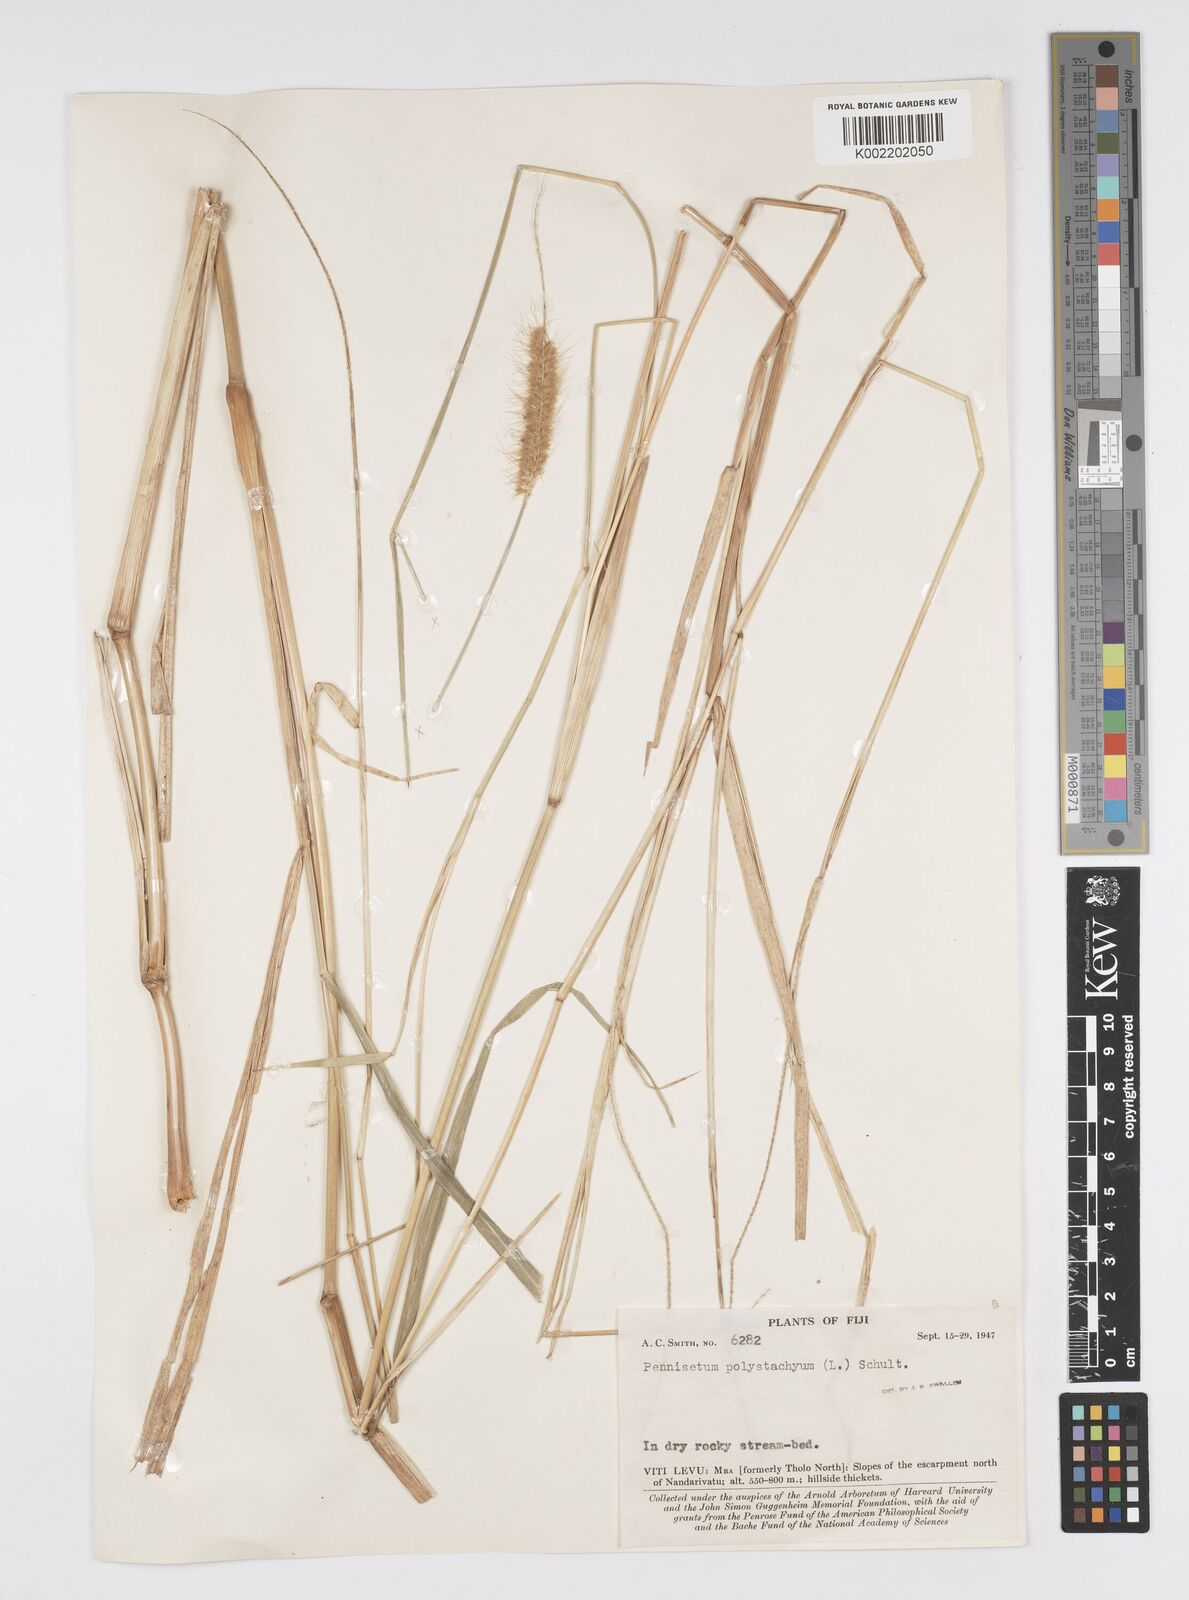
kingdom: Plantae
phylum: Tracheophyta
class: Liliopsida
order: Poales
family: Poaceae
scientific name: Poaceae
